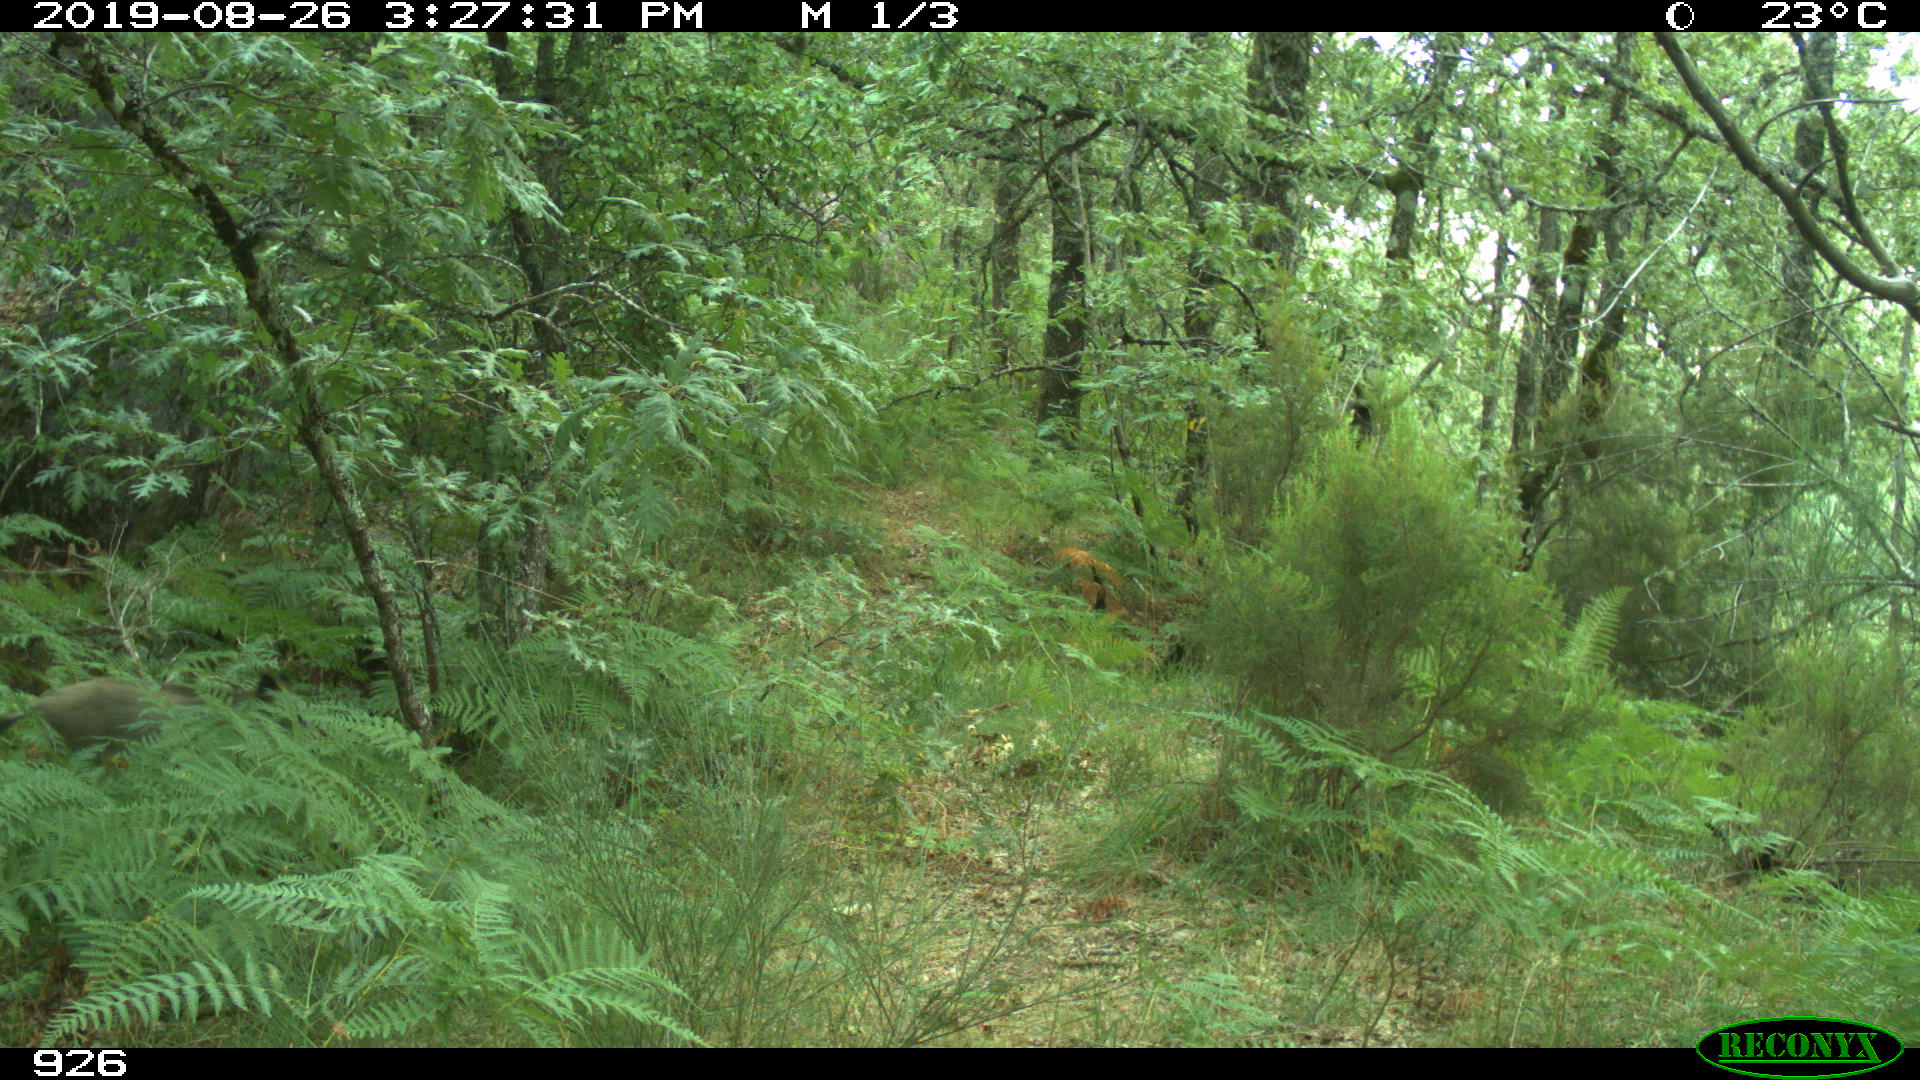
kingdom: Animalia
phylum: Chordata
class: Mammalia
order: Artiodactyla
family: Suidae
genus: Sus
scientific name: Sus scrofa
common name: Wild boar
